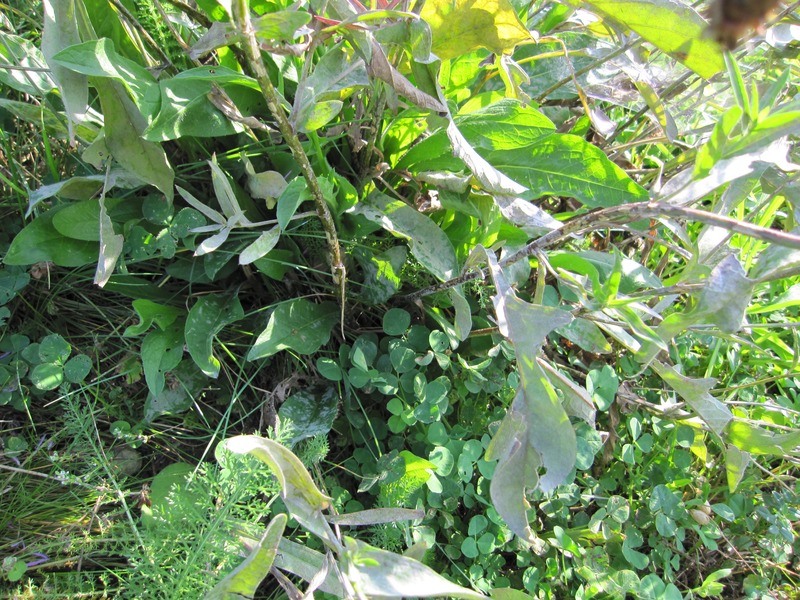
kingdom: Fungi
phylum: Ascomycota
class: Leotiomycetes
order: Helotiales
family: Erysiphaceae
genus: Golovinomyces
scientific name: Golovinomyces cichoracearum
